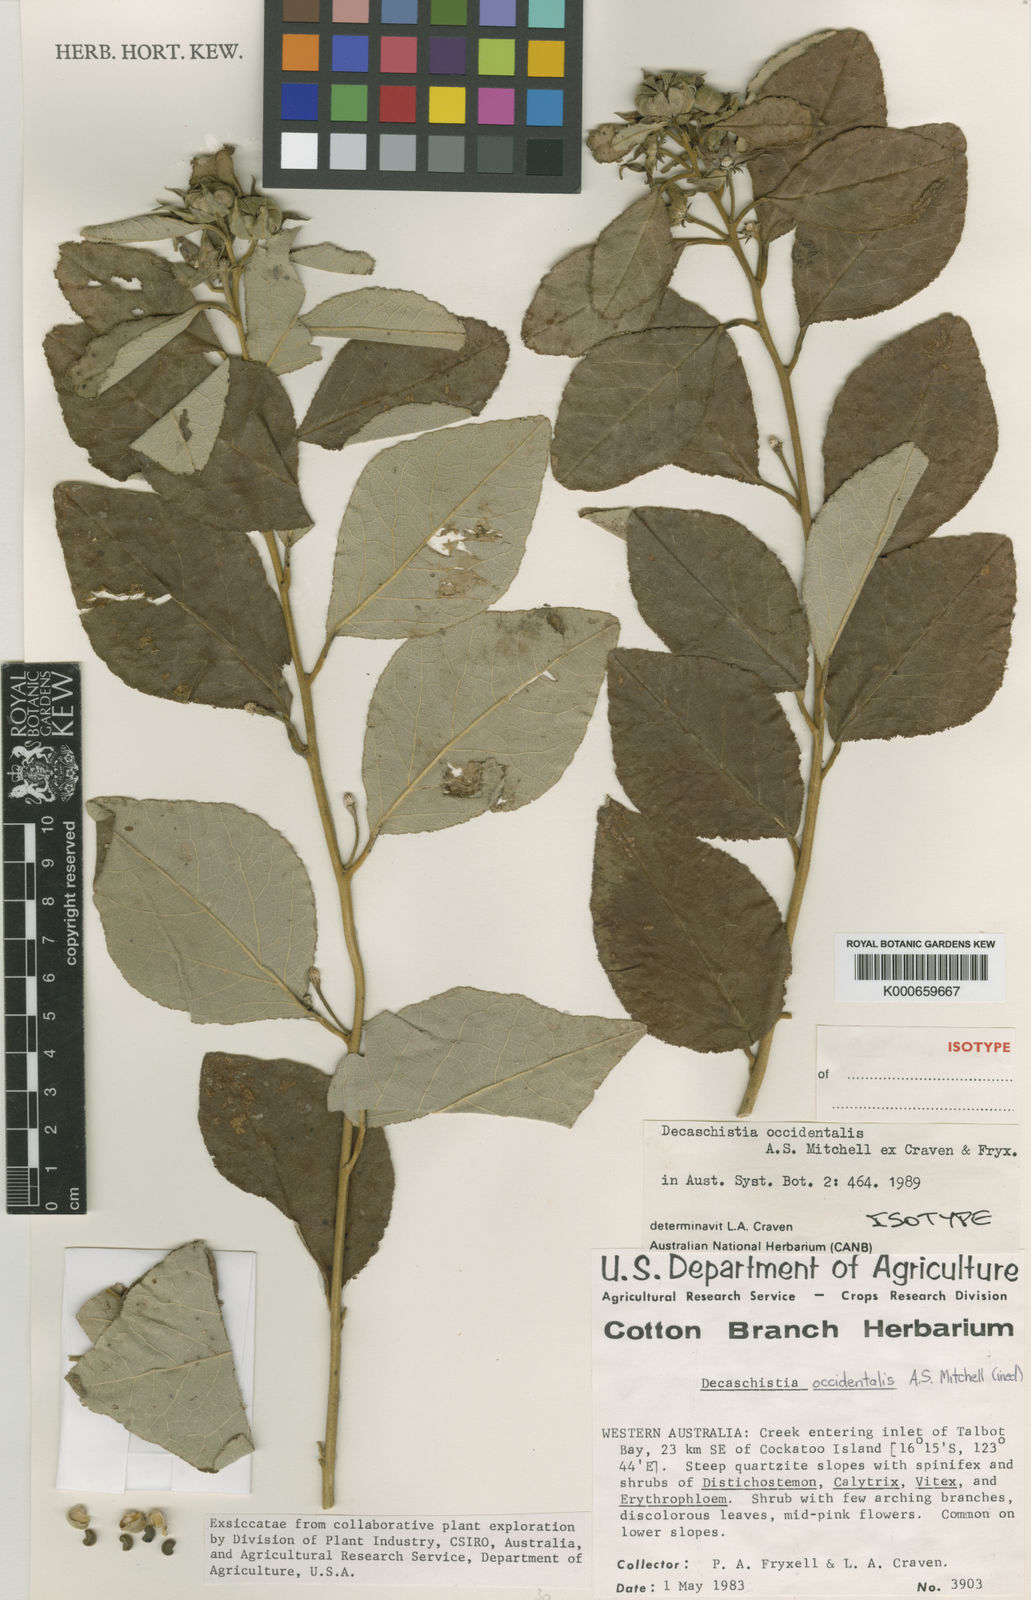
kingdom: Plantae
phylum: Tracheophyta
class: Magnoliopsida
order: Malvales
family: Malvaceae
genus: Decaschistia
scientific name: Decaschistia occidentalis
